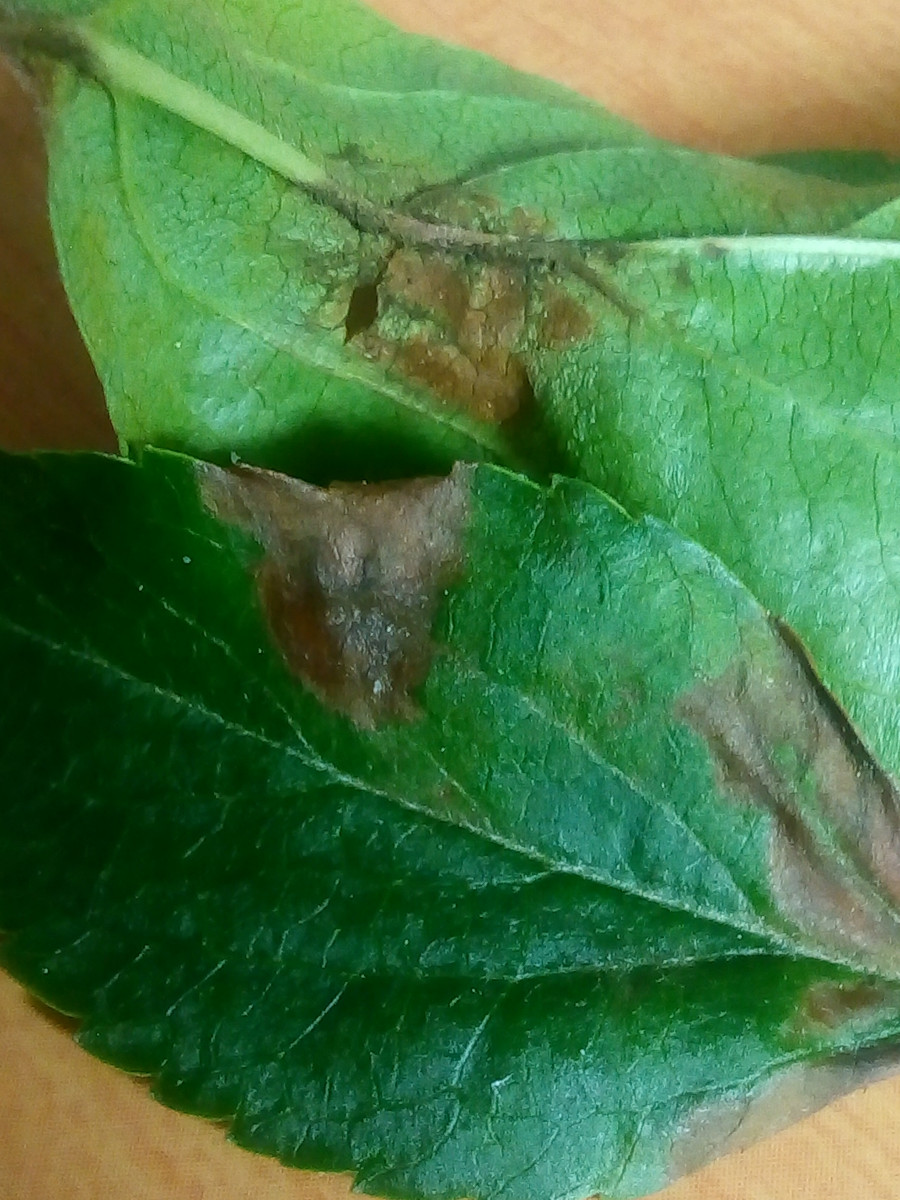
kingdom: Fungi
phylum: Ascomycota
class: Dothideomycetes
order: Venturiales
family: Venturiaceae
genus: Venturia
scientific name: Venturia inaequalis
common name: Apple scab
